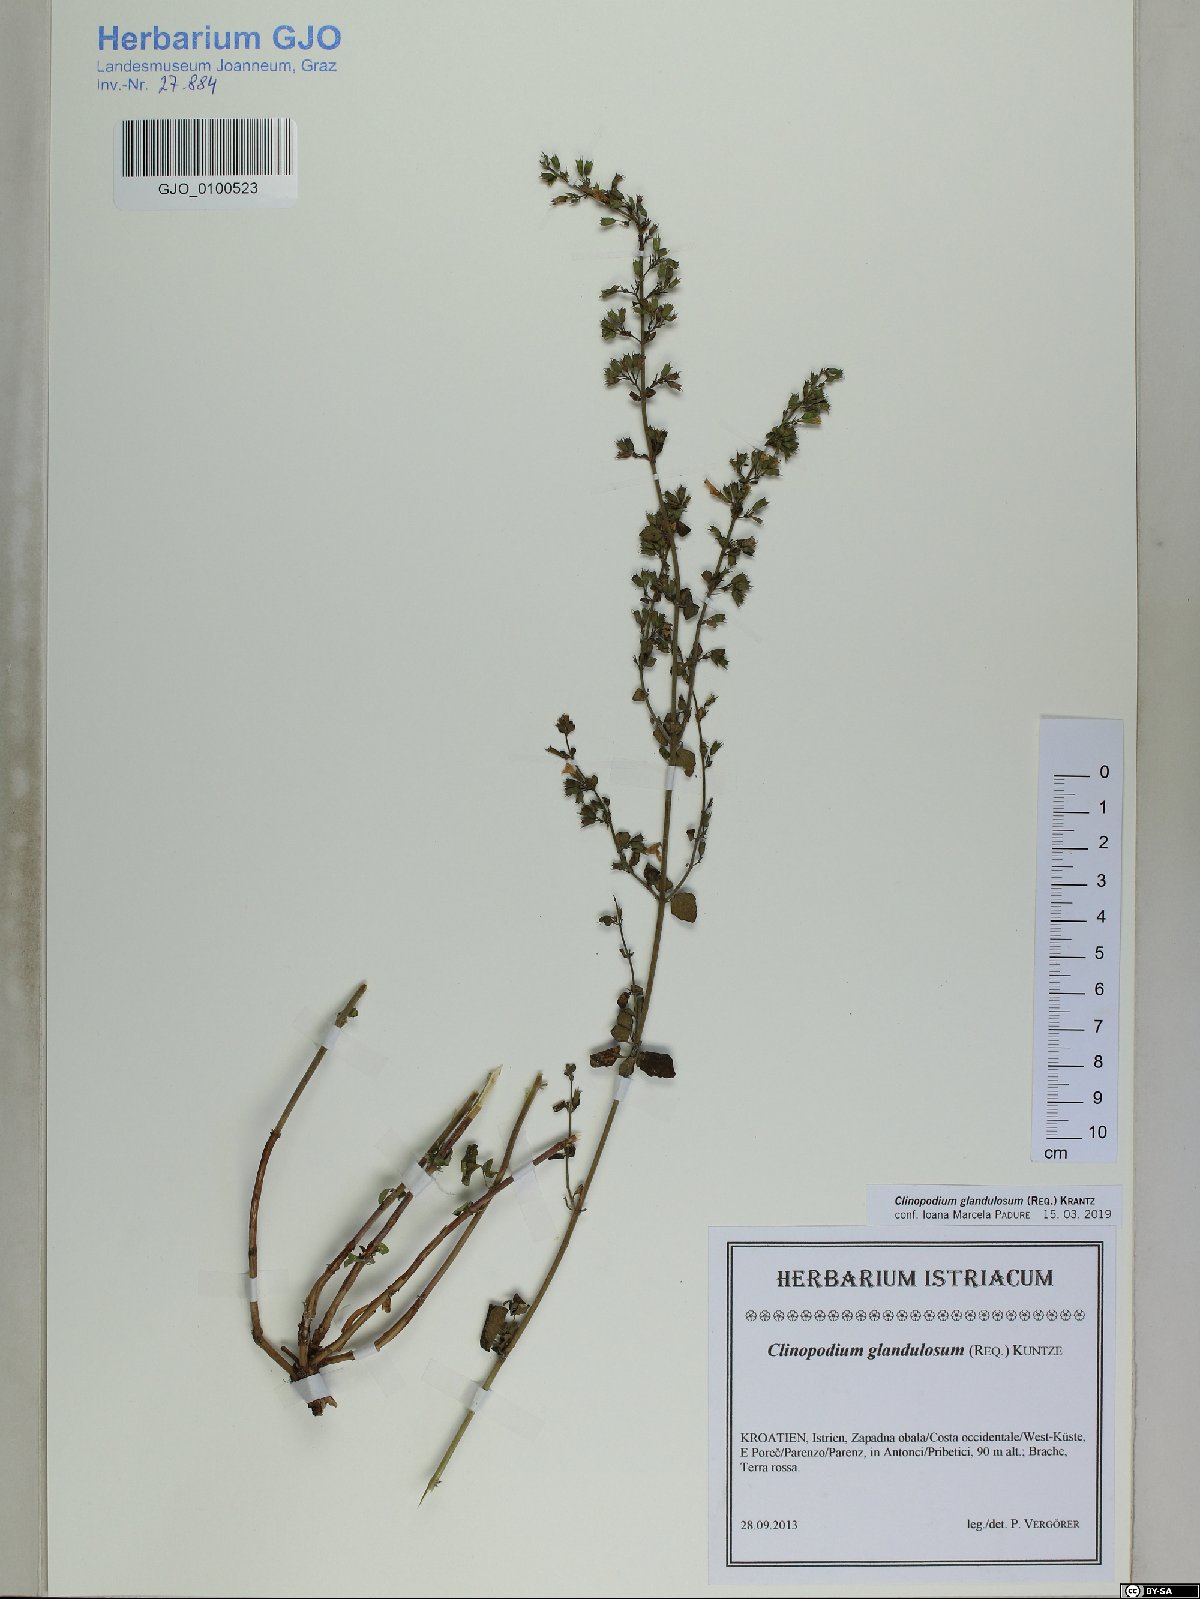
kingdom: Plantae
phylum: Tracheophyta
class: Magnoliopsida
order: Lamiales
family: Lamiaceae
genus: Clinopodium
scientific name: Clinopodium nepeta
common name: Lesser calamint
